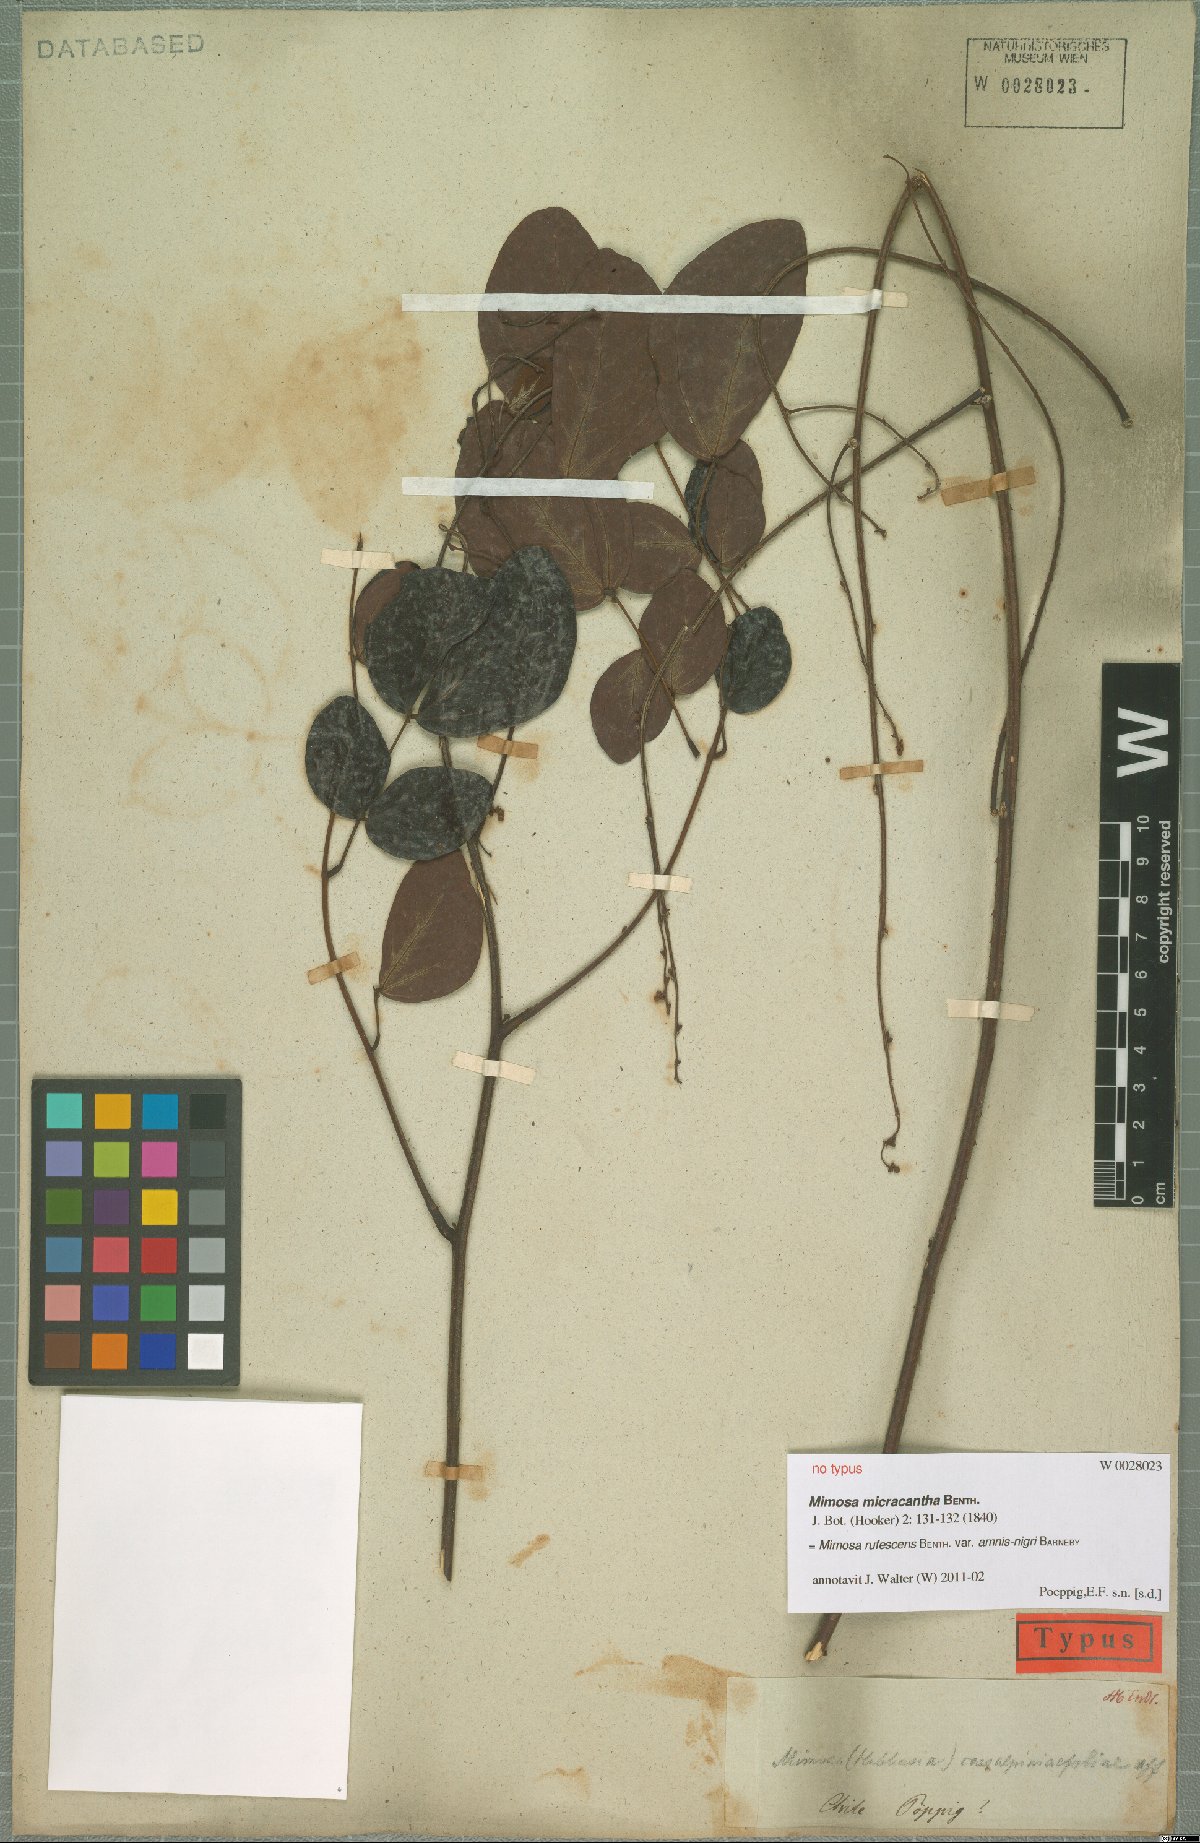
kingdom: Plantae
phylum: Tracheophyta
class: Magnoliopsida
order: Fabales
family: Fabaceae
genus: Mimosa
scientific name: Mimosa rufescens
